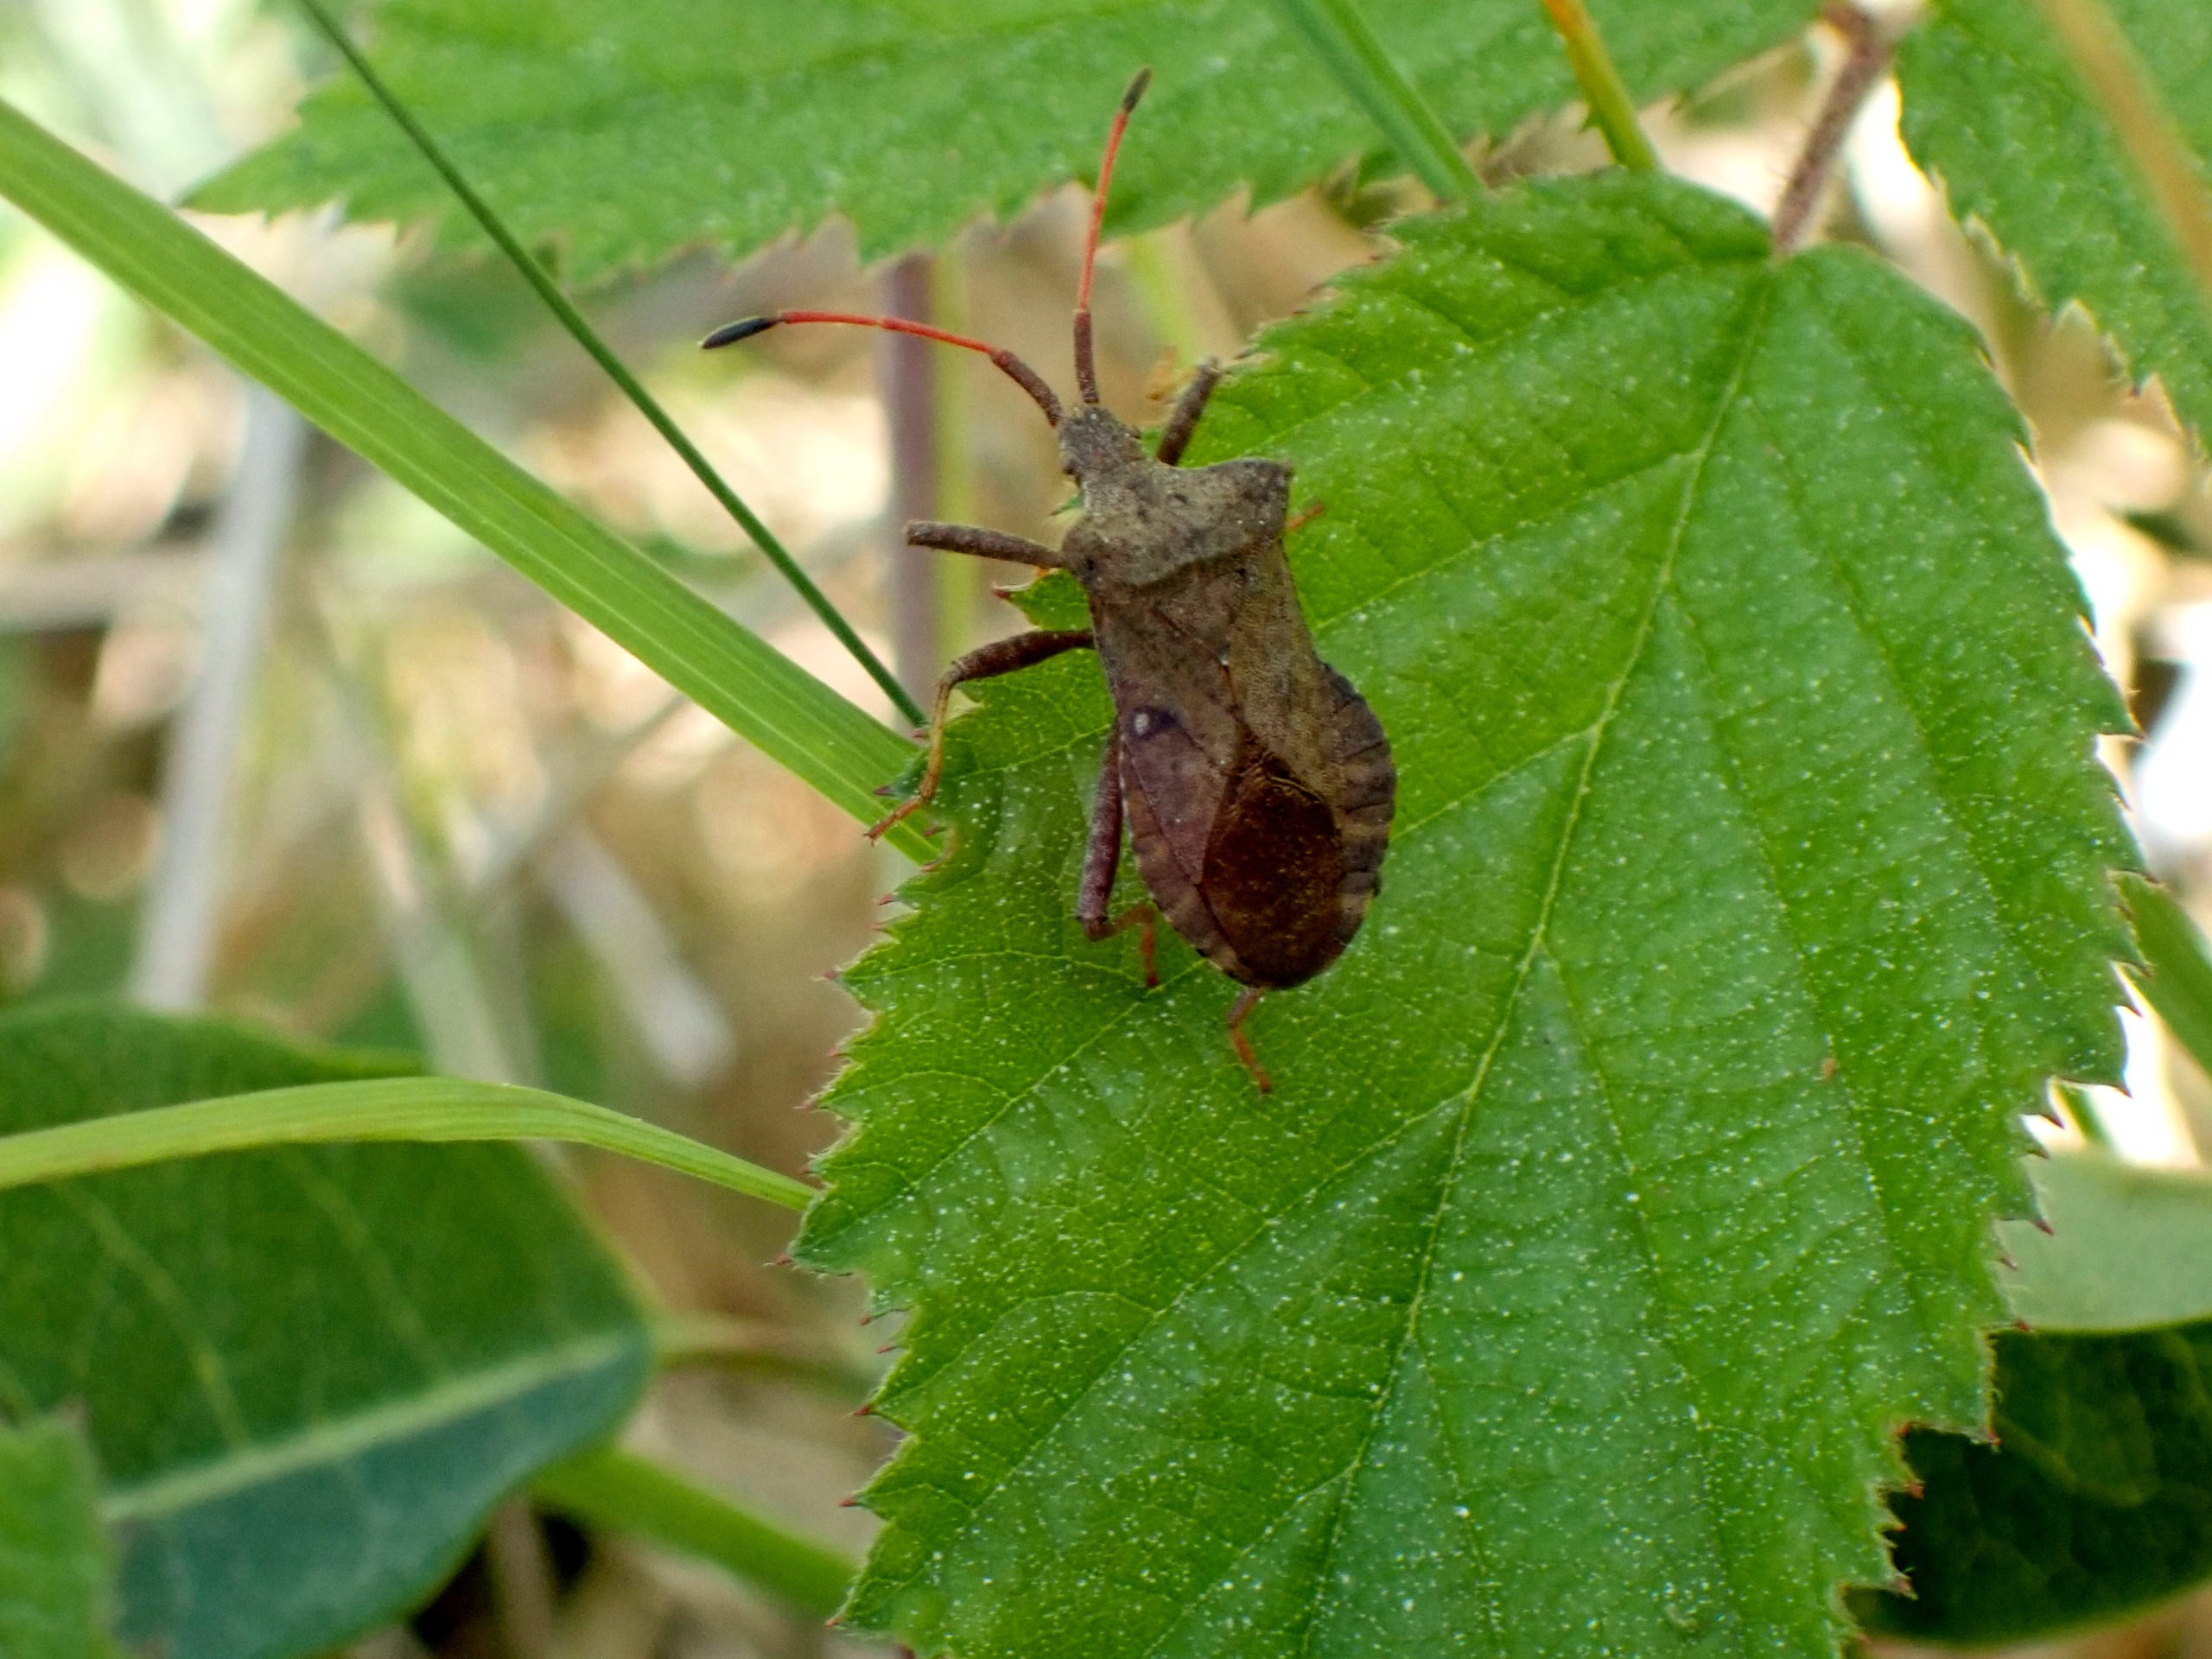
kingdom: Animalia
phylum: Arthropoda
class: Insecta
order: Hemiptera
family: Coreidae
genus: Coreus
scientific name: Coreus marginatus
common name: Skræppetæge
